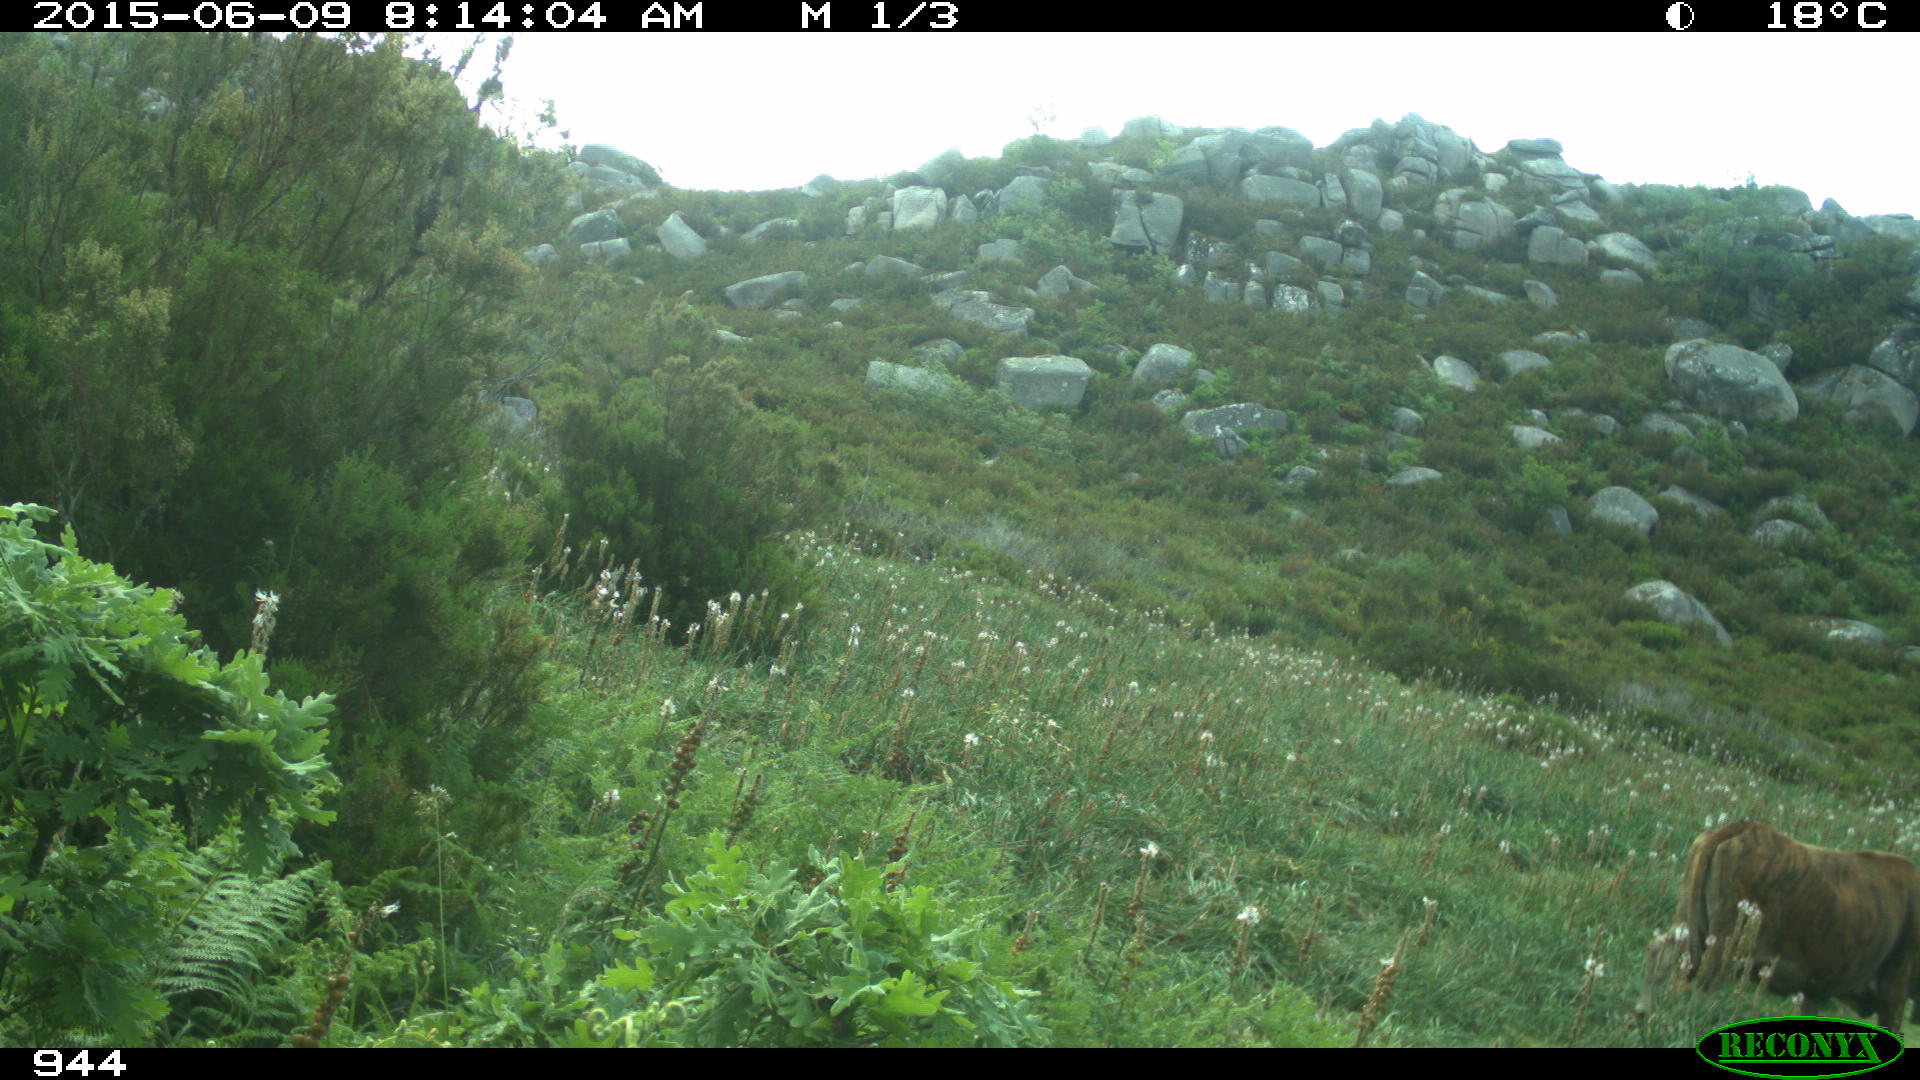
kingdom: Animalia
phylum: Chordata
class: Mammalia
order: Artiodactyla
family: Bovidae
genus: Bos
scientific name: Bos taurus
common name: Domesticated cattle
